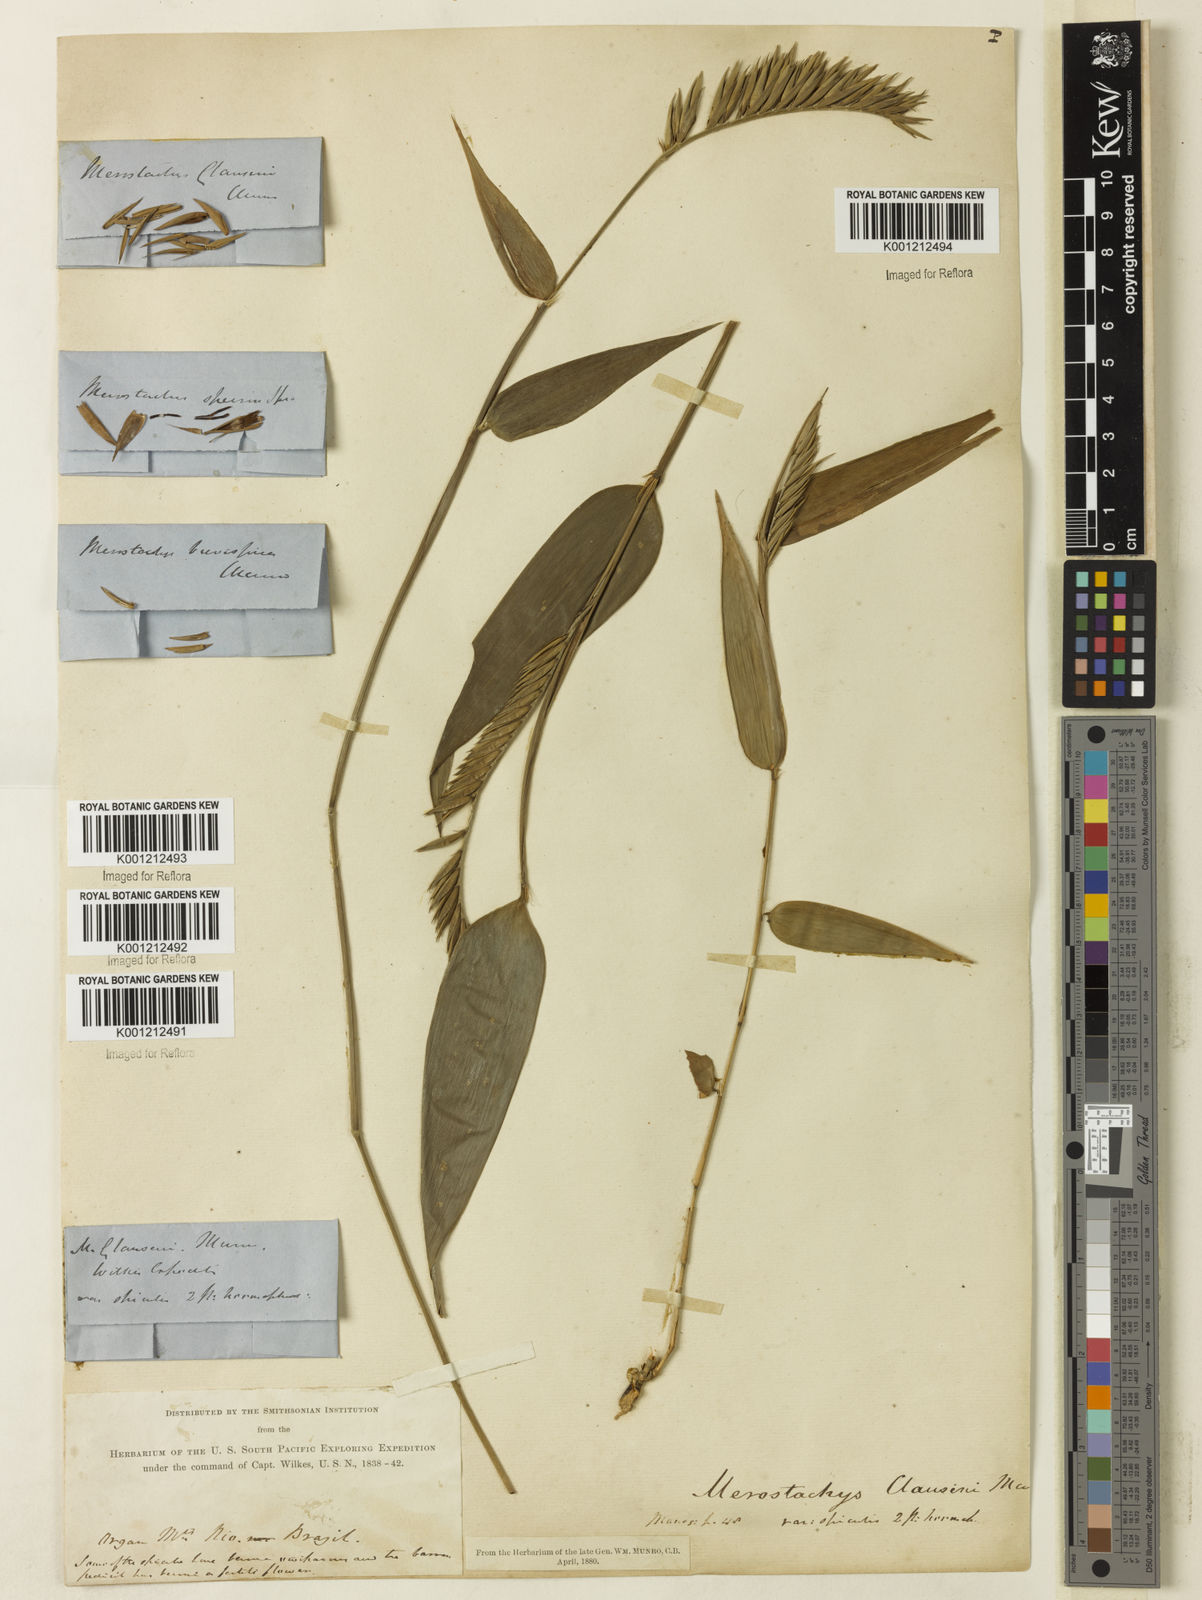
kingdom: Plantae
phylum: Tracheophyta
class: Liliopsida
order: Poales
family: Poaceae
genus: Merostachys
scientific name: Merostachys claussenii
